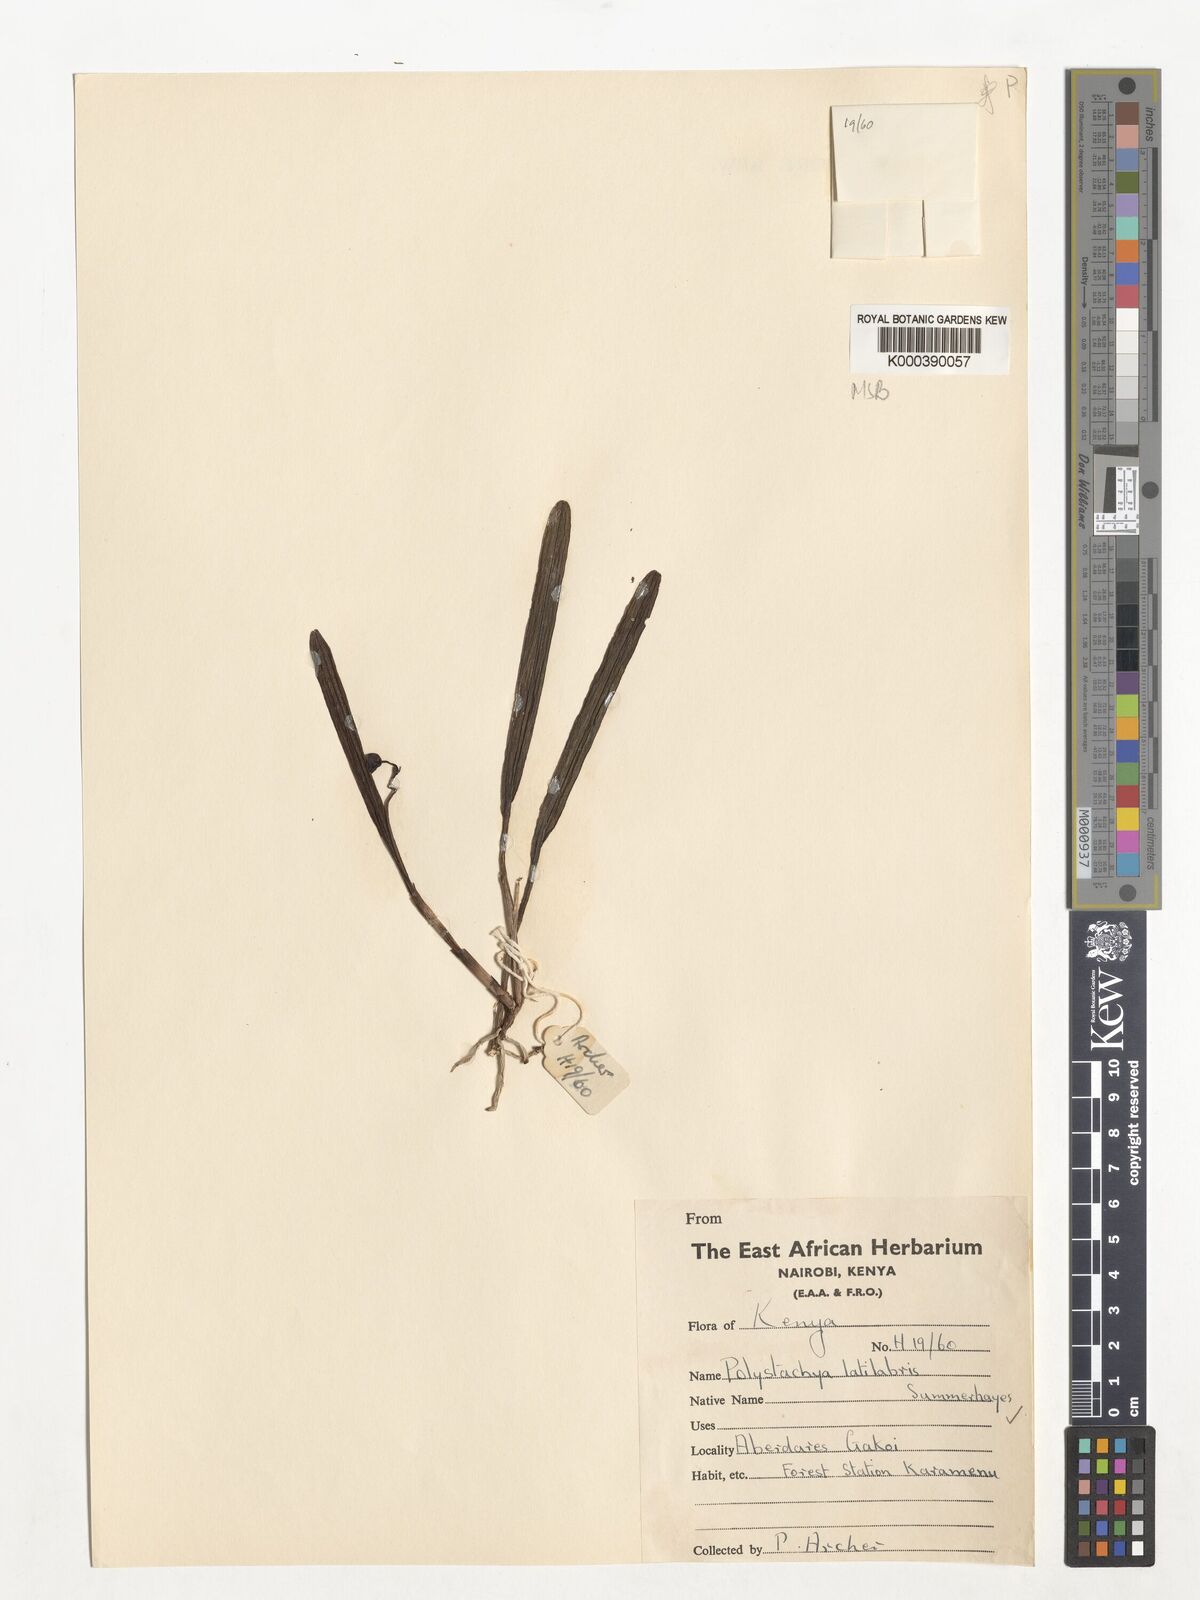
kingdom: Plantae
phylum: Tracheophyta
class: Liliopsida
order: Asparagales
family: Orchidaceae
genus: Polystachya
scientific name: Polystachya caespitifica
